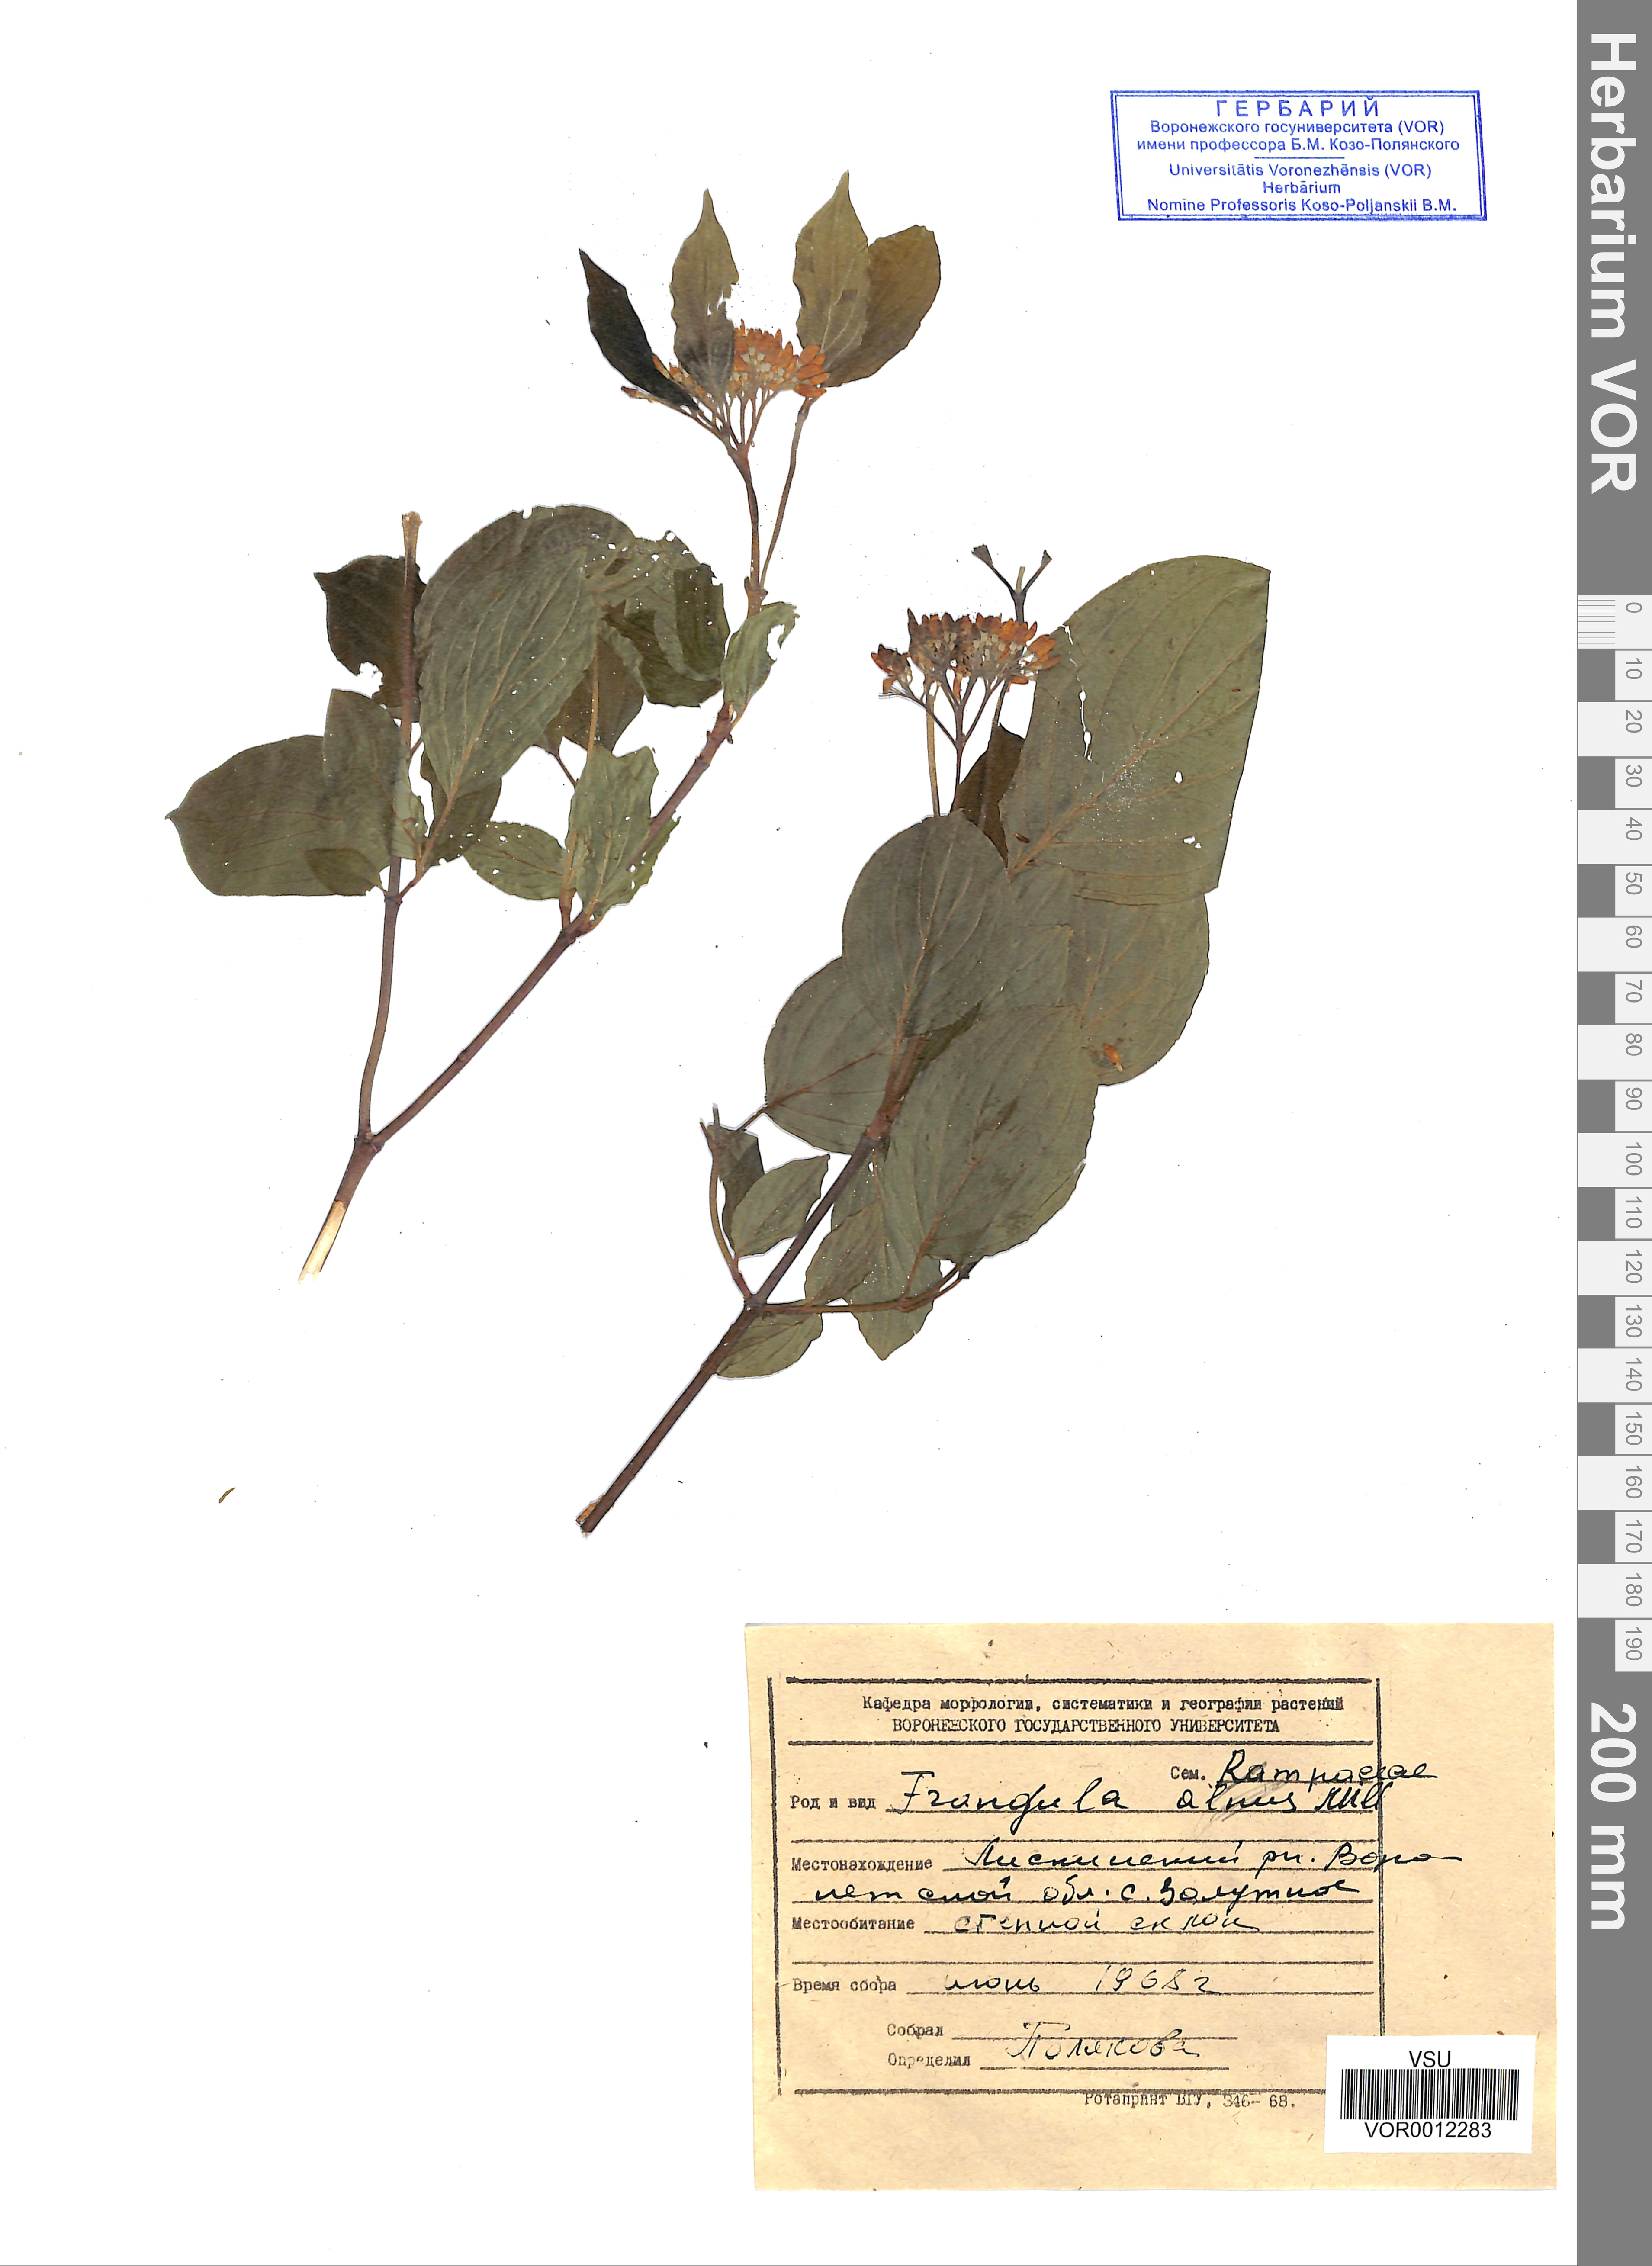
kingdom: Plantae
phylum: Tracheophyta
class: Magnoliopsida
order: Rosales
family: Rhamnaceae
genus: Frangula
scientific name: Frangula alnus
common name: Alder buckthorn
